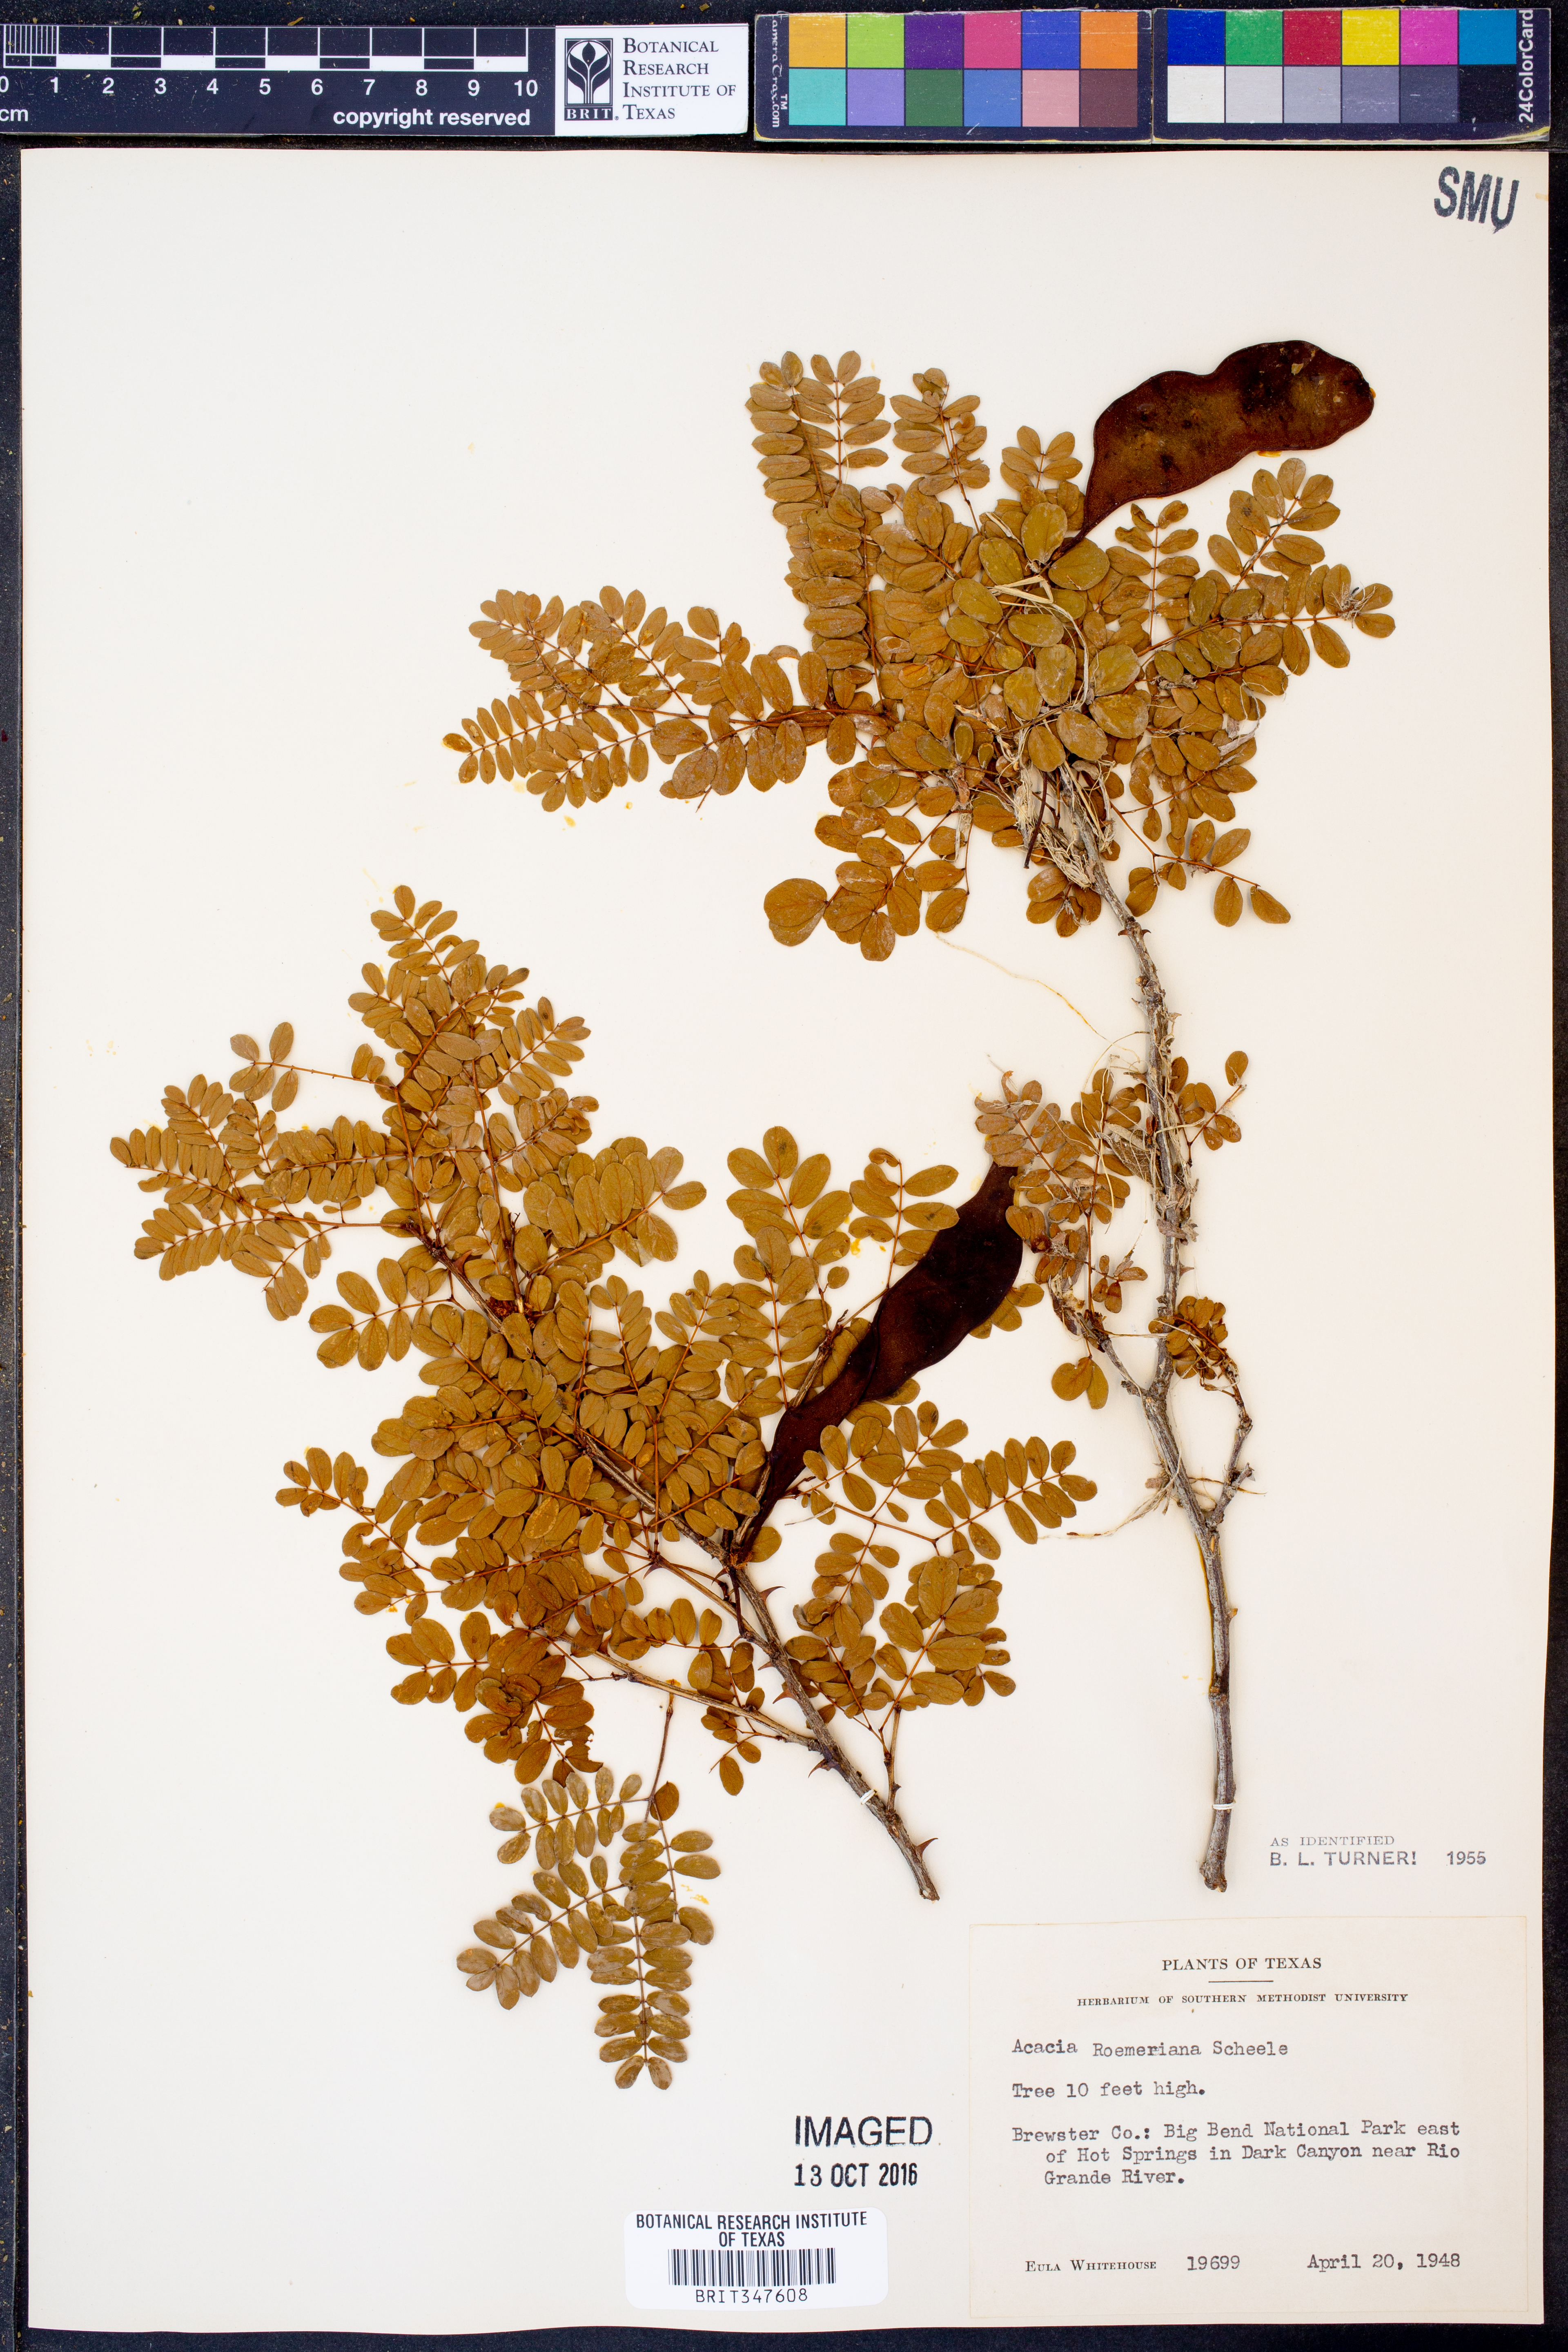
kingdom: Plantae
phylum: Tracheophyta
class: Magnoliopsida
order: Fabales
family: Fabaceae
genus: Senegalia
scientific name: Senegalia roemeriana
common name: Roemer's acacia
